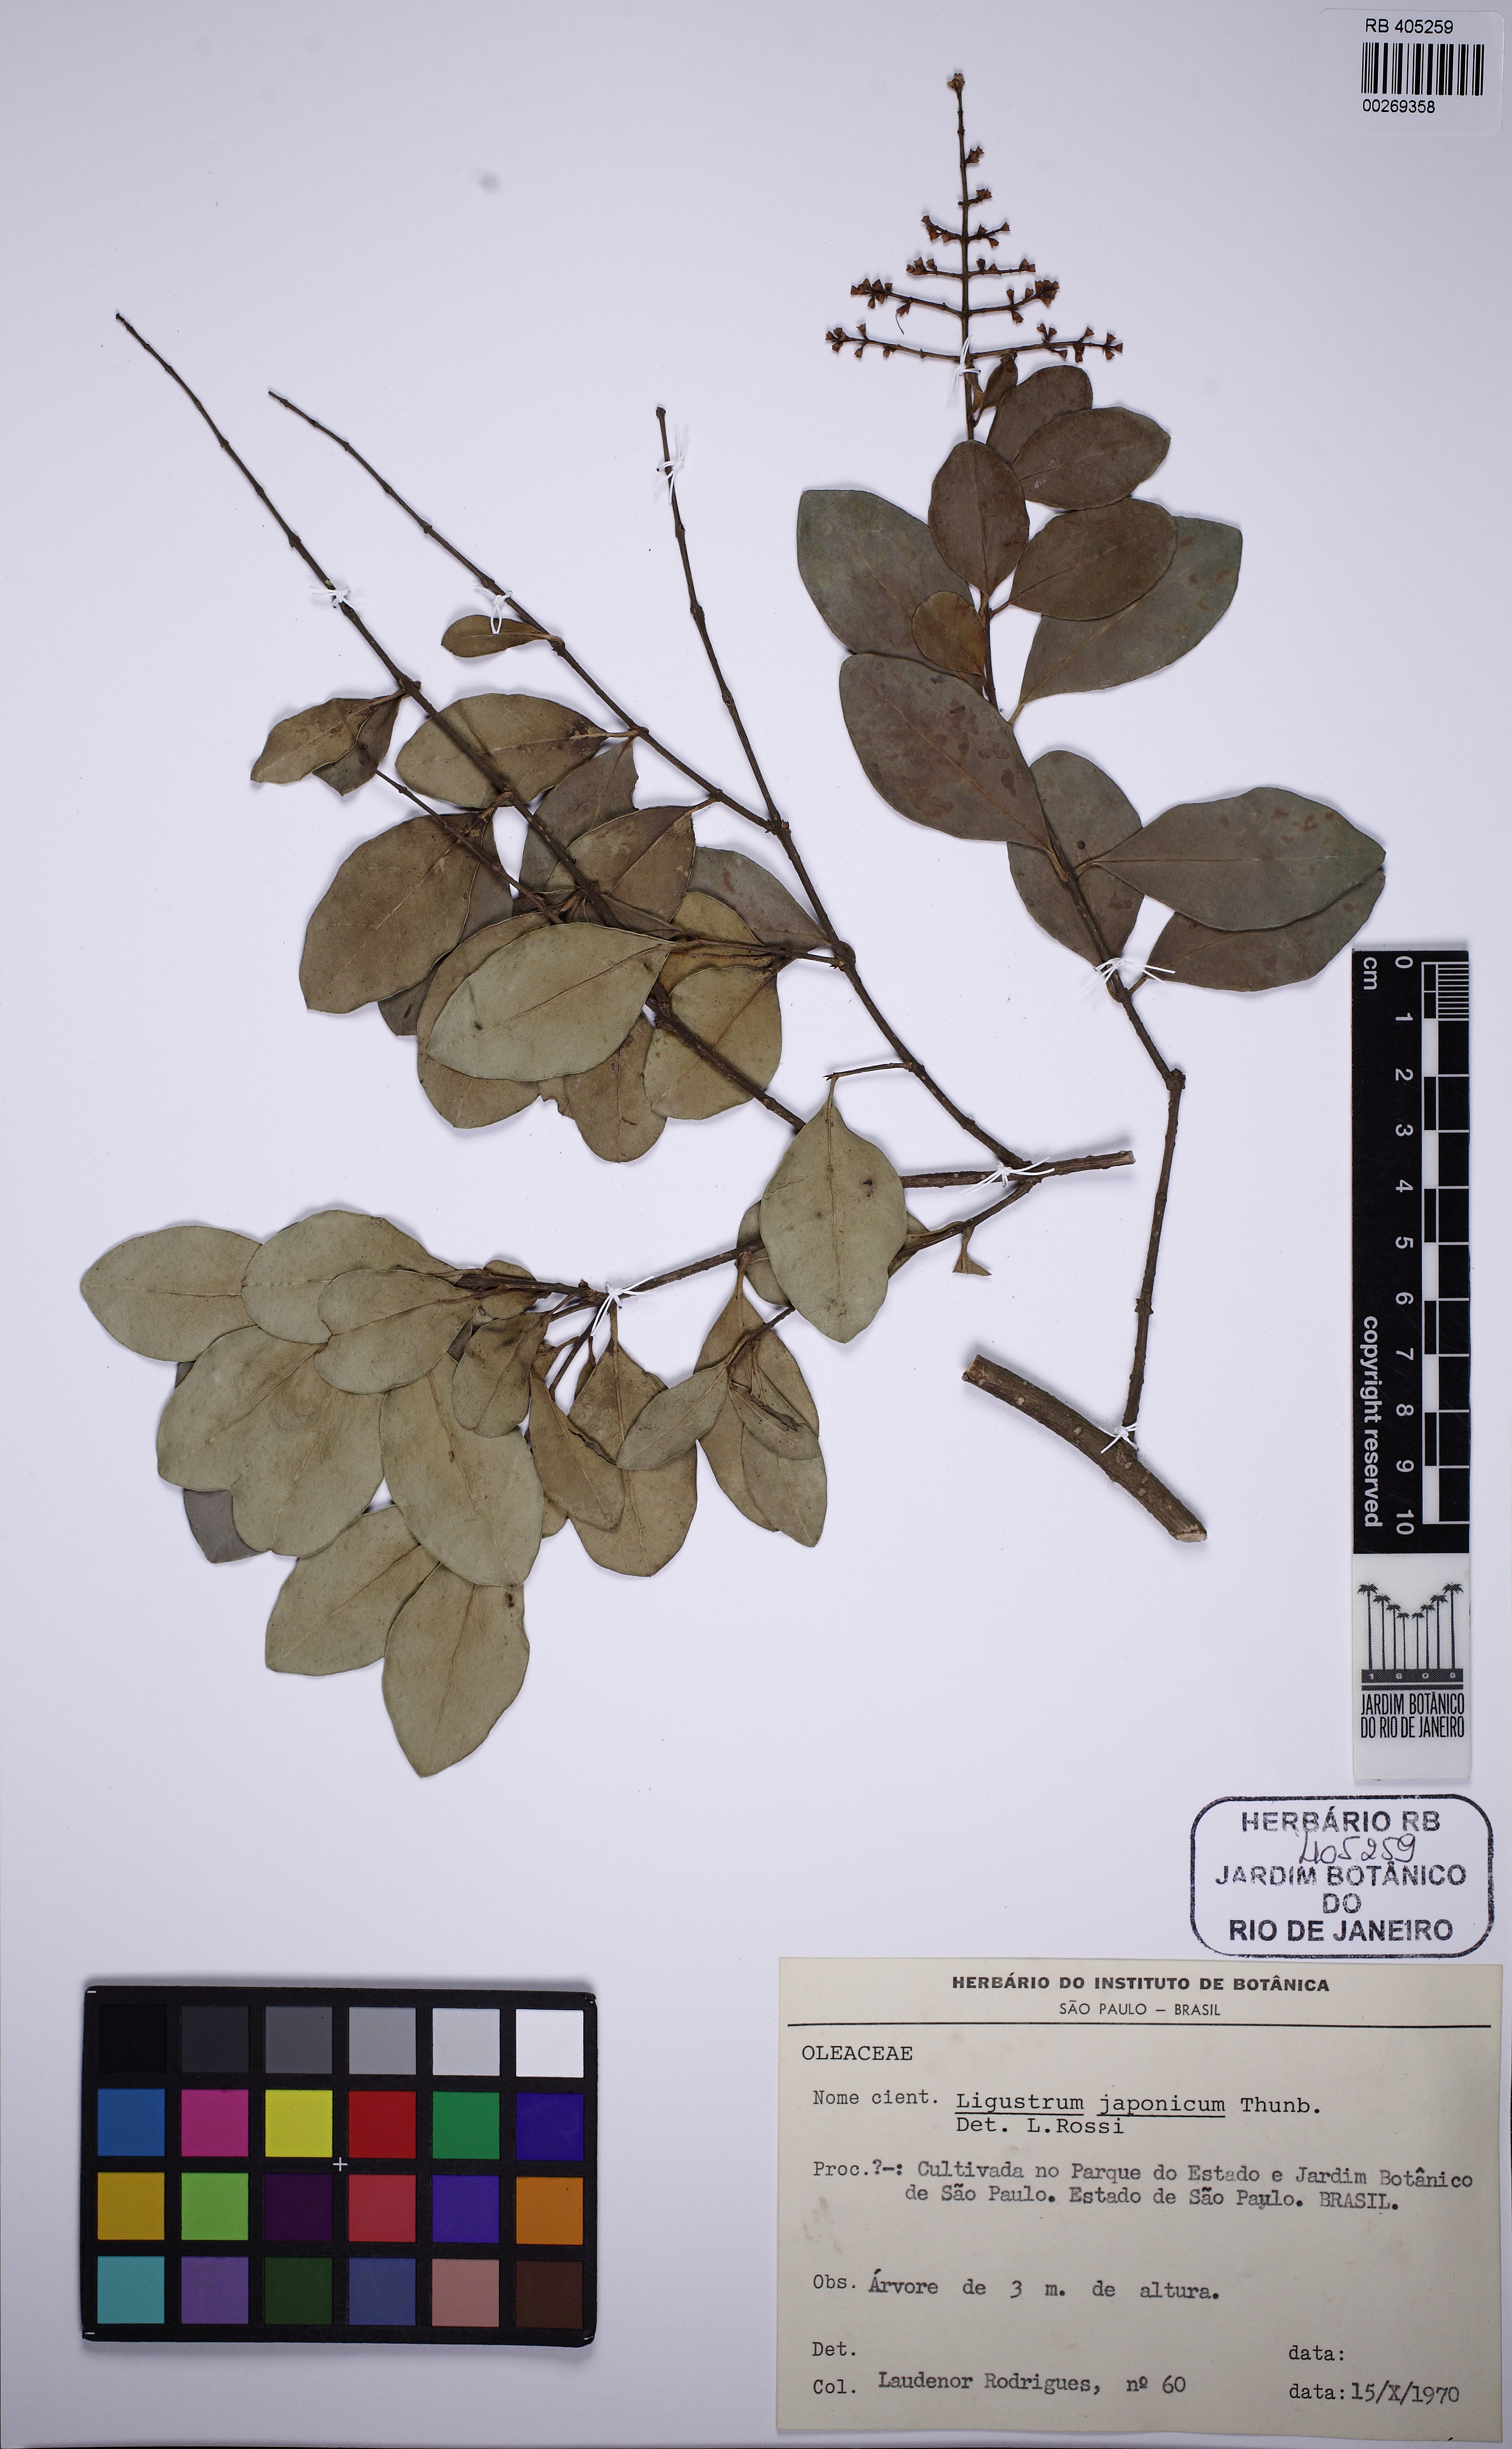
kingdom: Plantae
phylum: Tracheophyta
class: Magnoliopsida
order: Lamiales
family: Oleaceae
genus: Ligustrum
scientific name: Ligustrum japonicum
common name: Japanese privet
